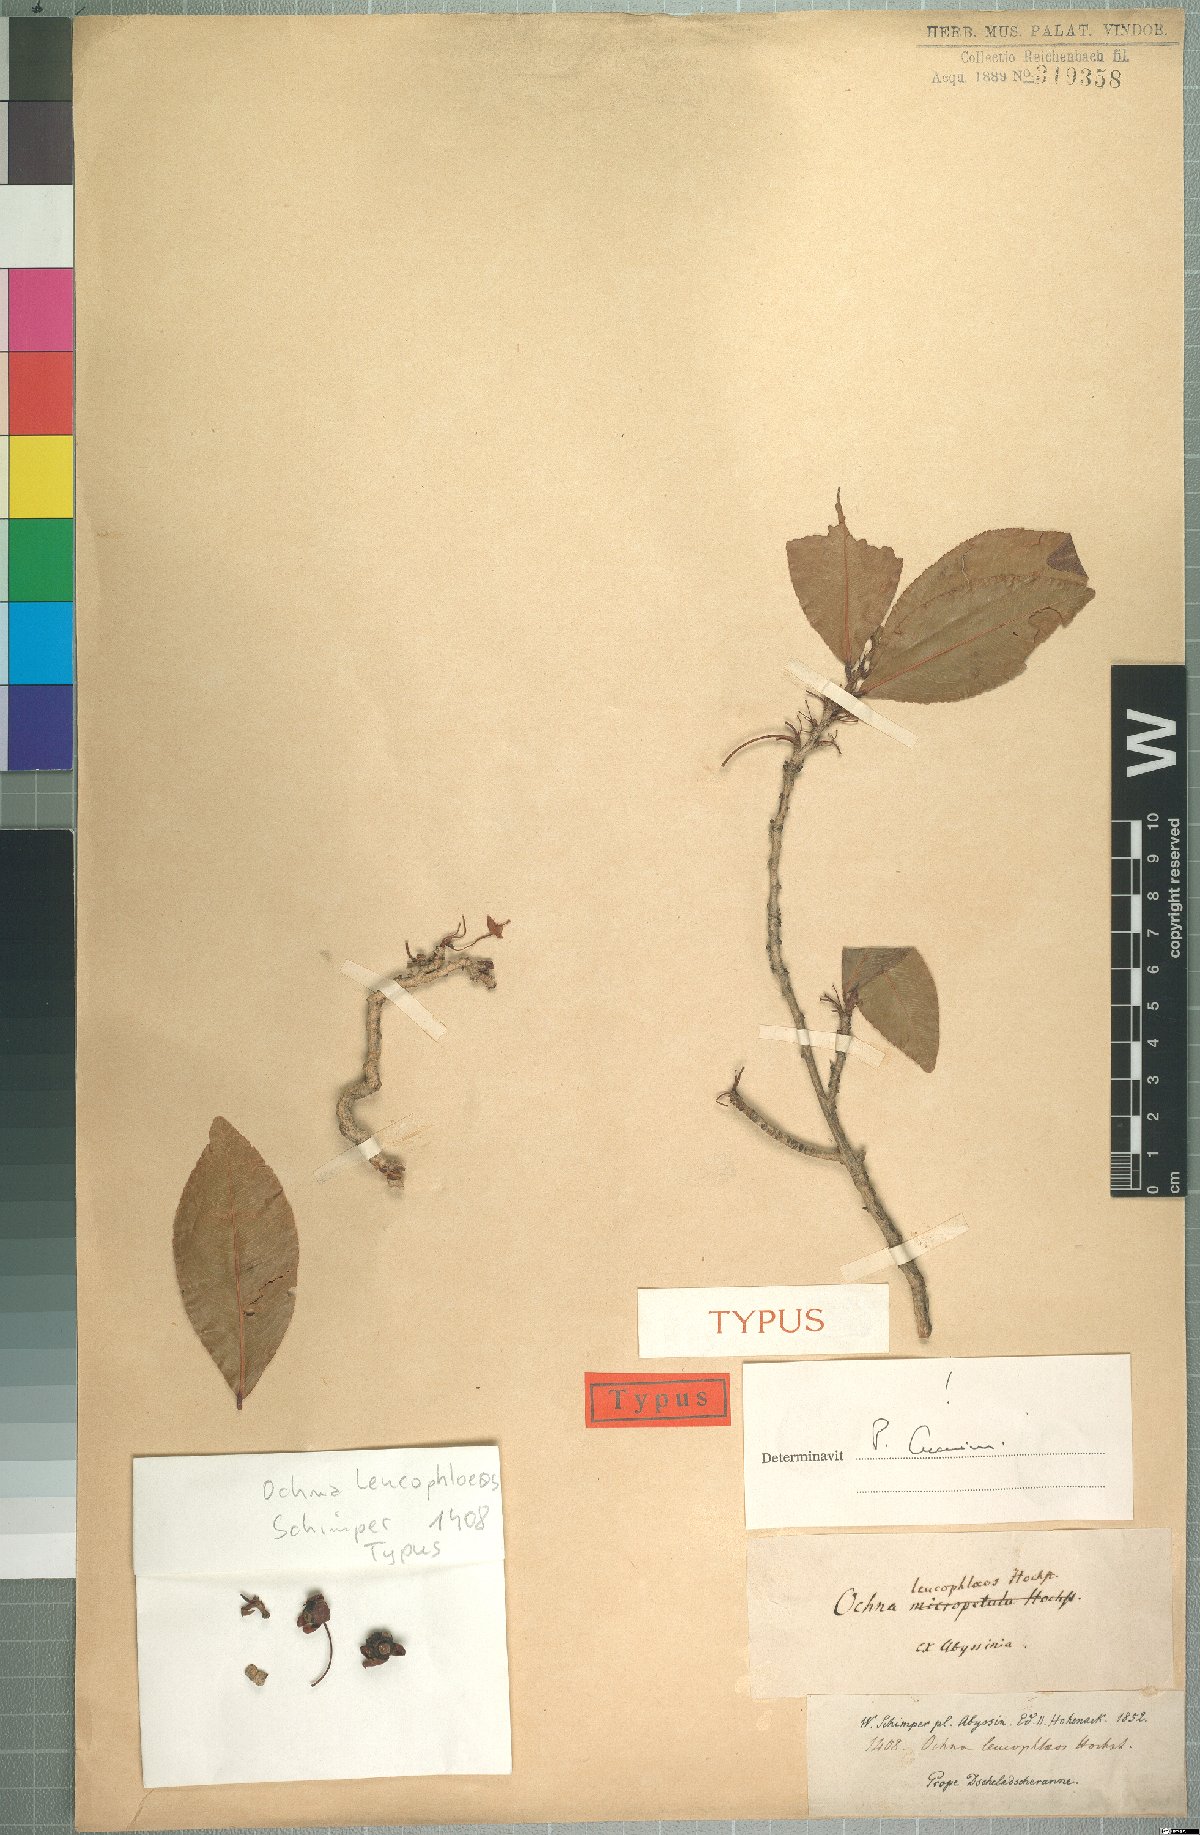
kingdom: Plantae
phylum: Tracheophyta
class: Magnoliopsida
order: Malpighiales
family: Ochnaceae
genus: Ochna
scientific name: Ochna leucophloeos
